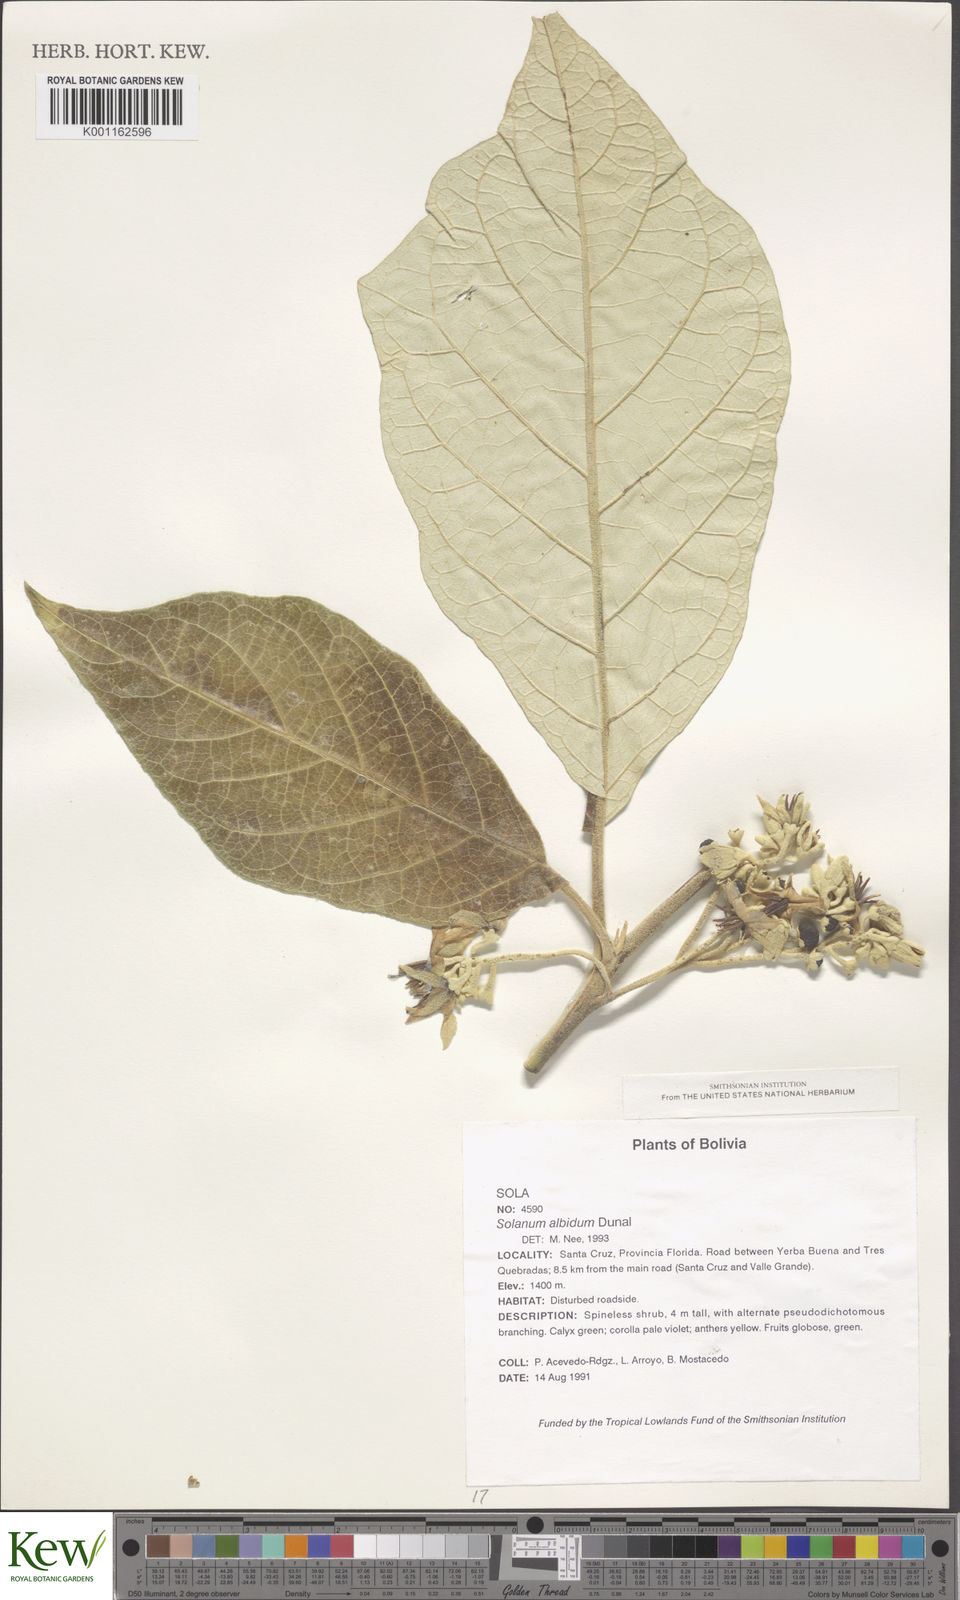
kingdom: Plantae
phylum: Tracheophyta
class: Magnoliopsida
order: Solanales
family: Solanaceae
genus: Solanum
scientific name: Solanum albidum
